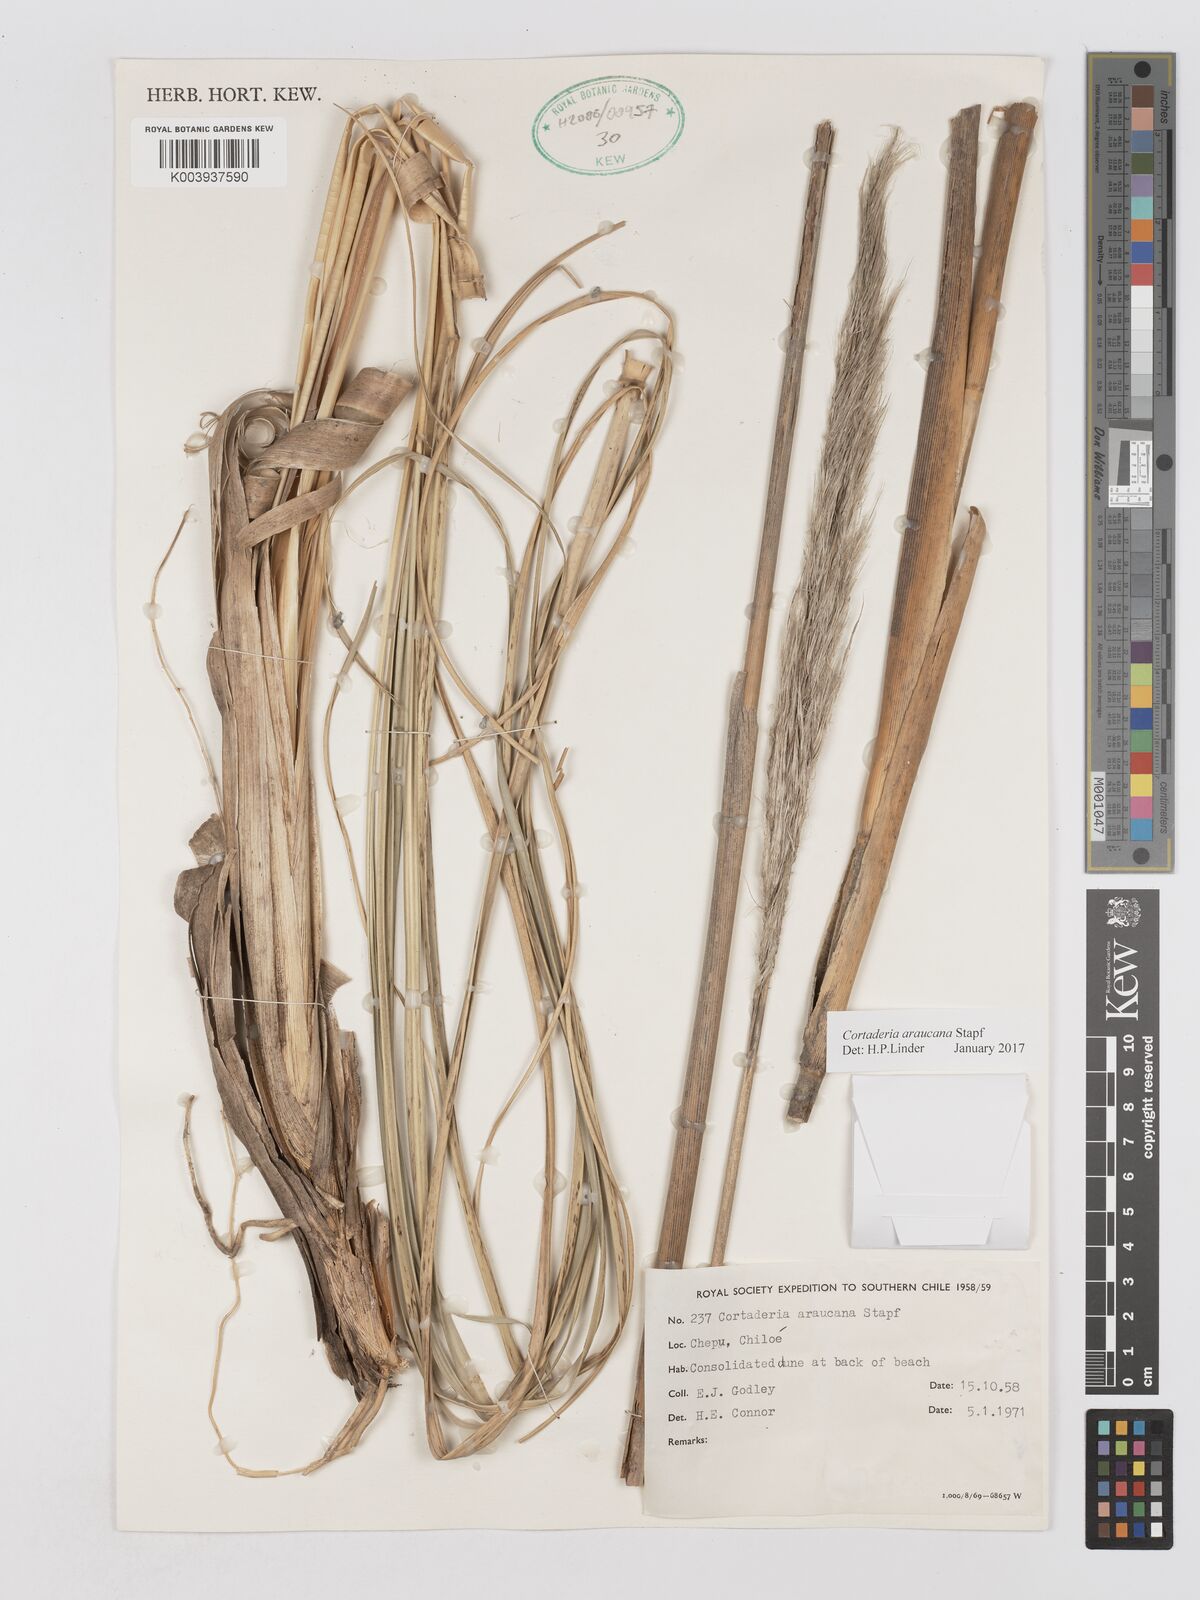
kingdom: Plantae
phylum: Tracheophyta
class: Liliopsida
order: Poales
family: Poaceae
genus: Cortaderia
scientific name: Cortaderia araucana
